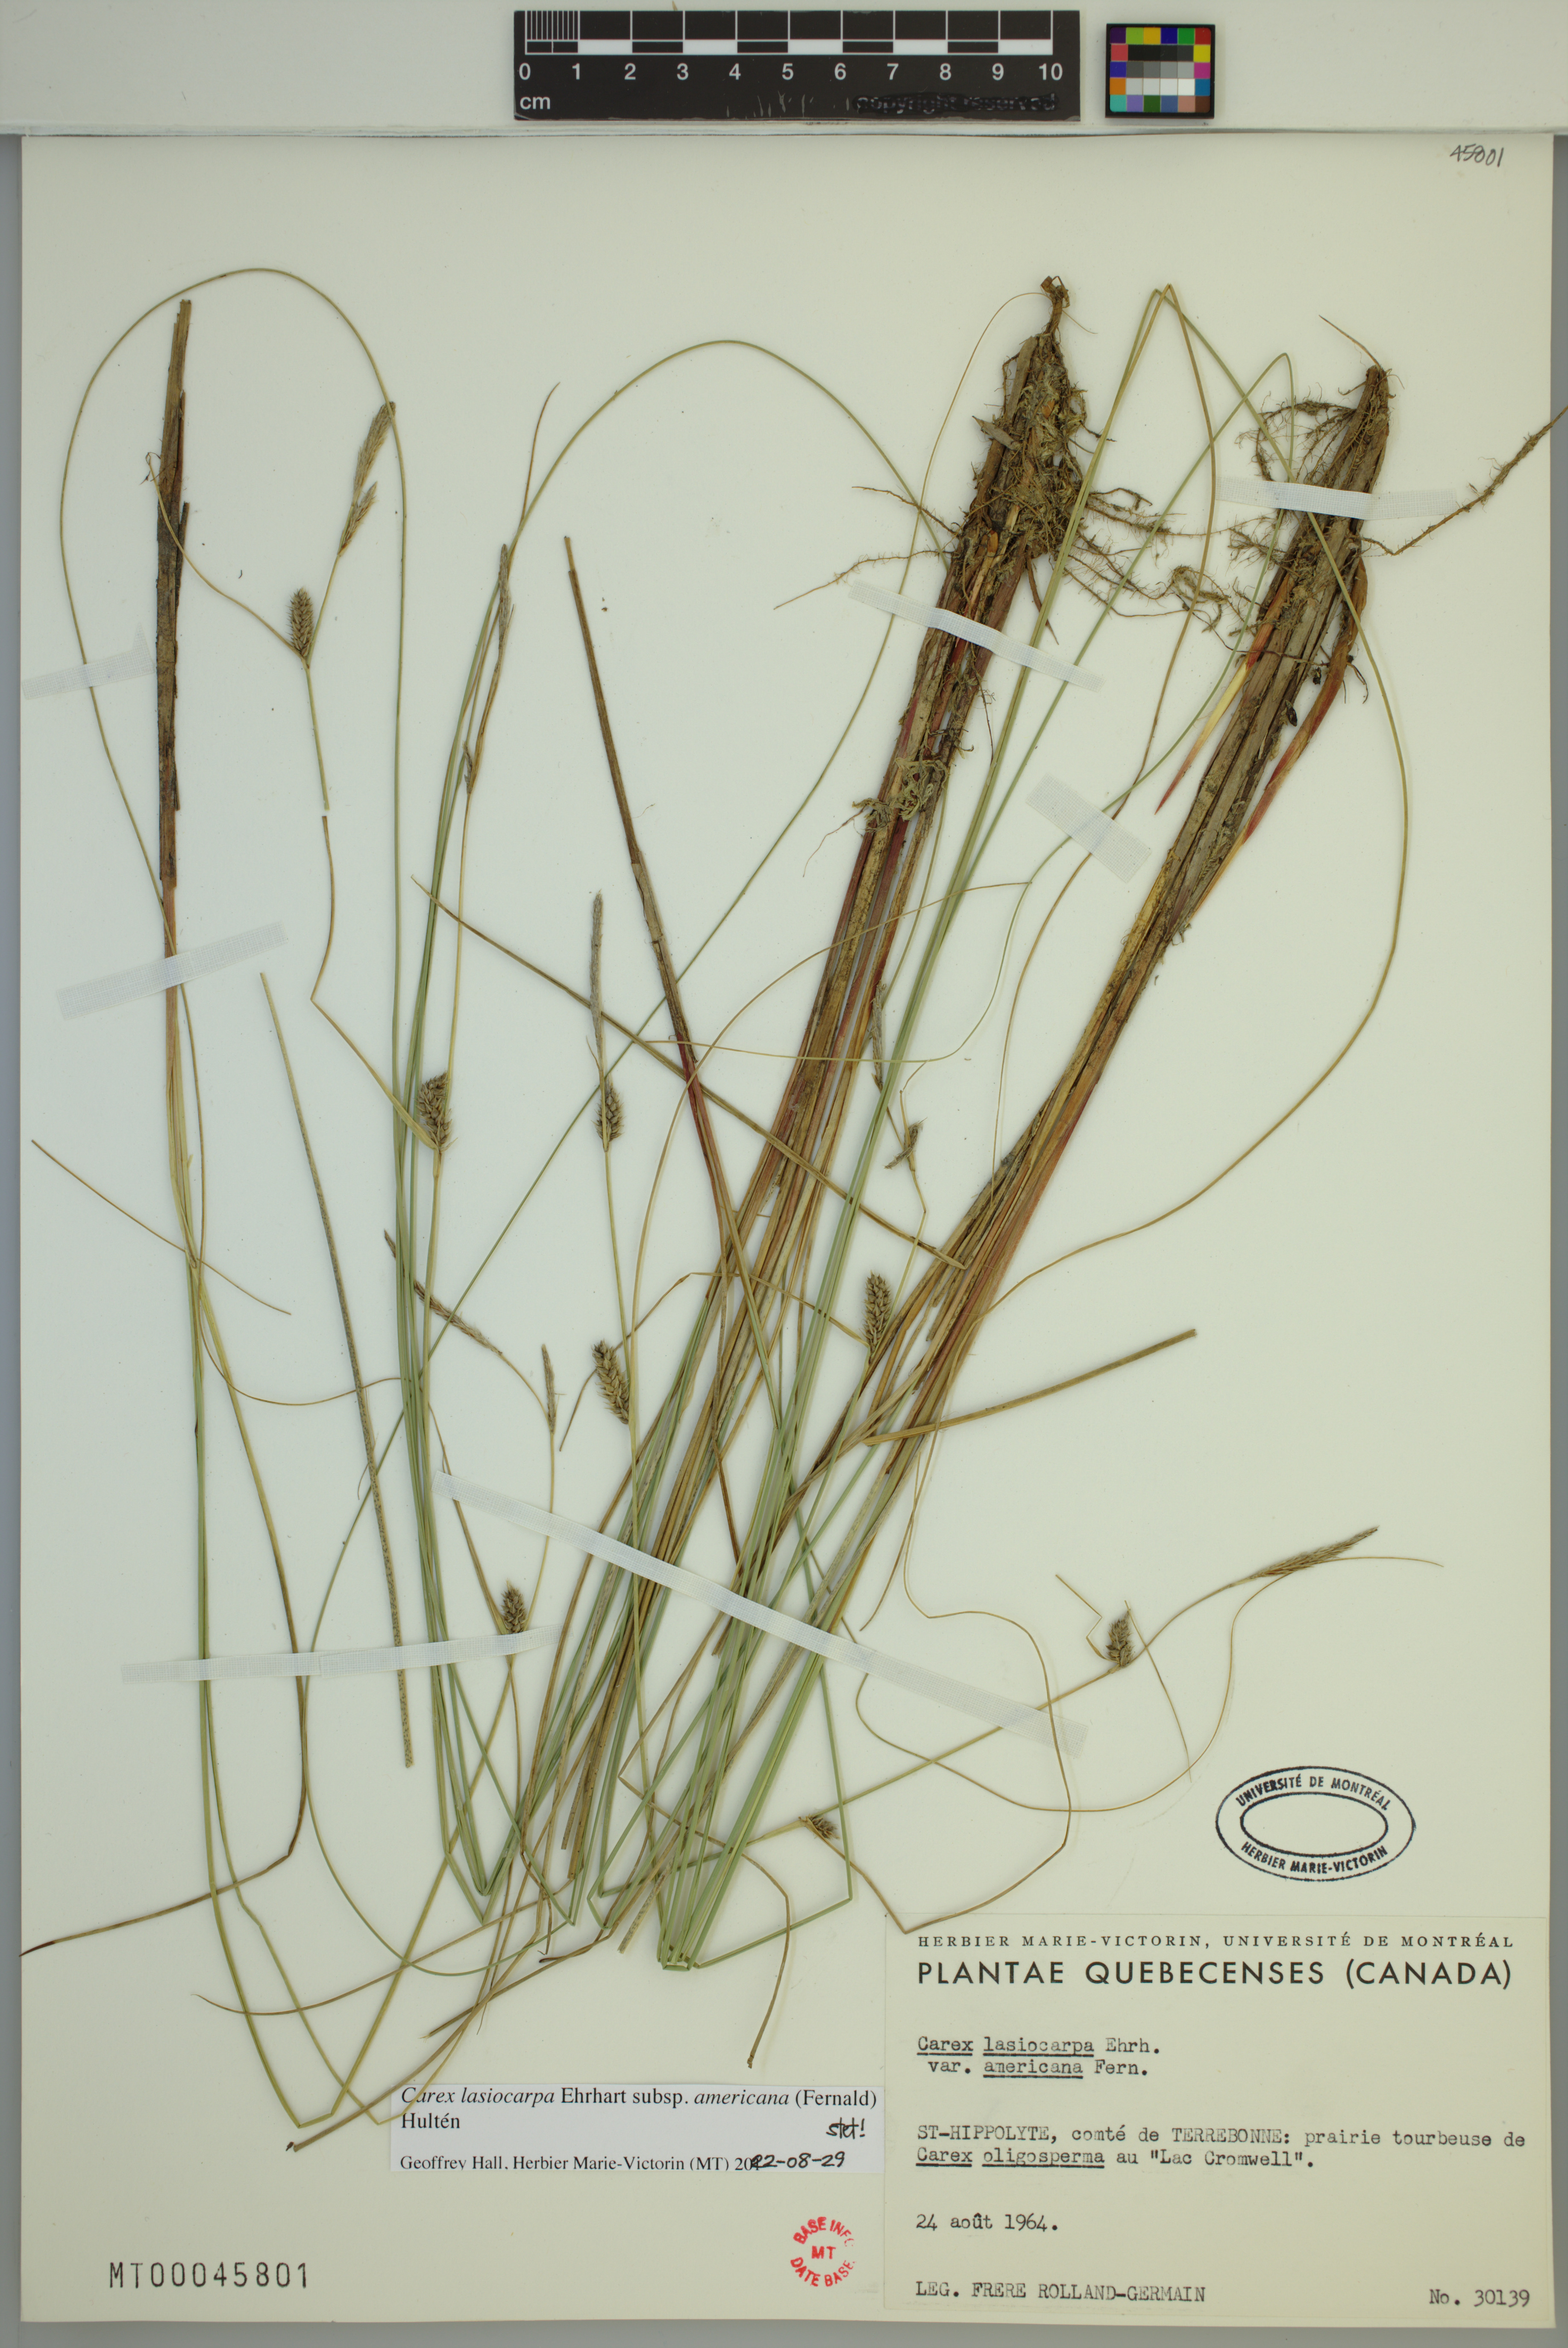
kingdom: Plantae
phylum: Tracheophyta
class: Liliopsida
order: Poales
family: Cyperaceae
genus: Carex
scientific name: Carex lasiocarpa
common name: Slender sedge
